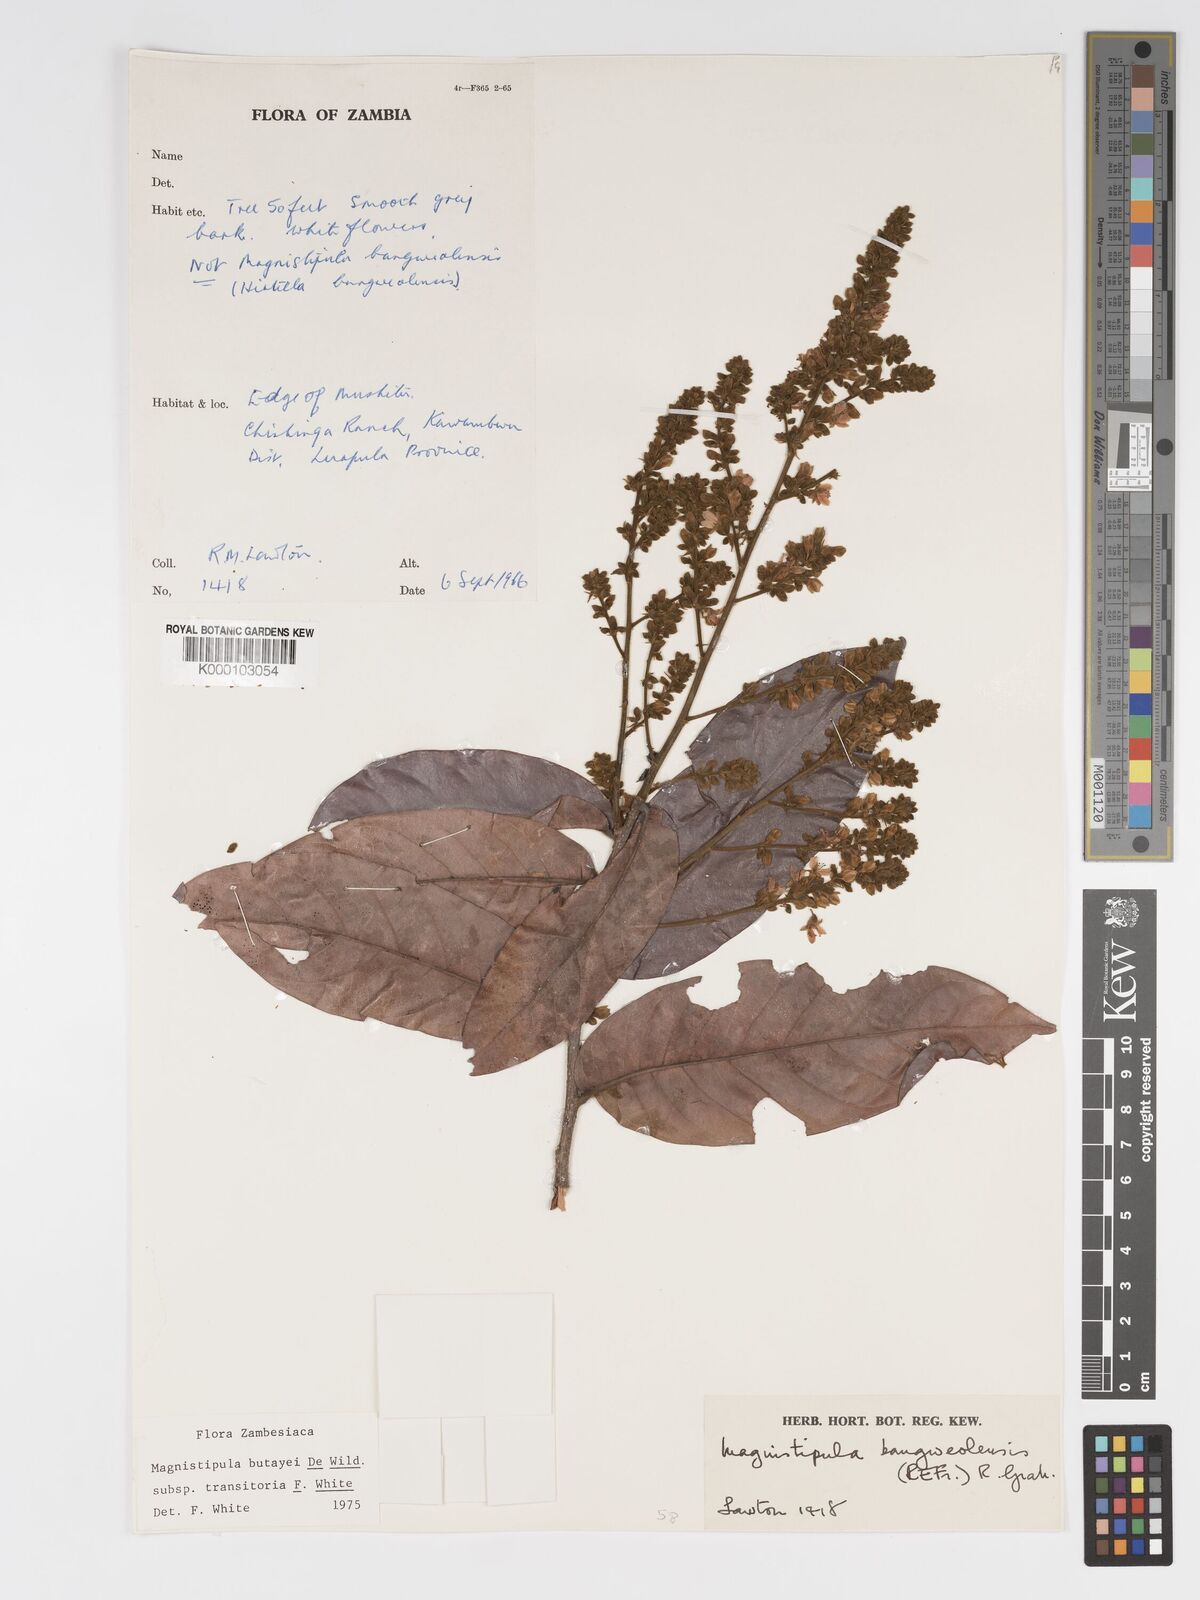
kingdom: Plantae
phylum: Tracheophyta
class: Magnoliopsida
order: Malpighiales
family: Chrysobalanaceae
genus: Magnistipula
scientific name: Magnistipula butayei
